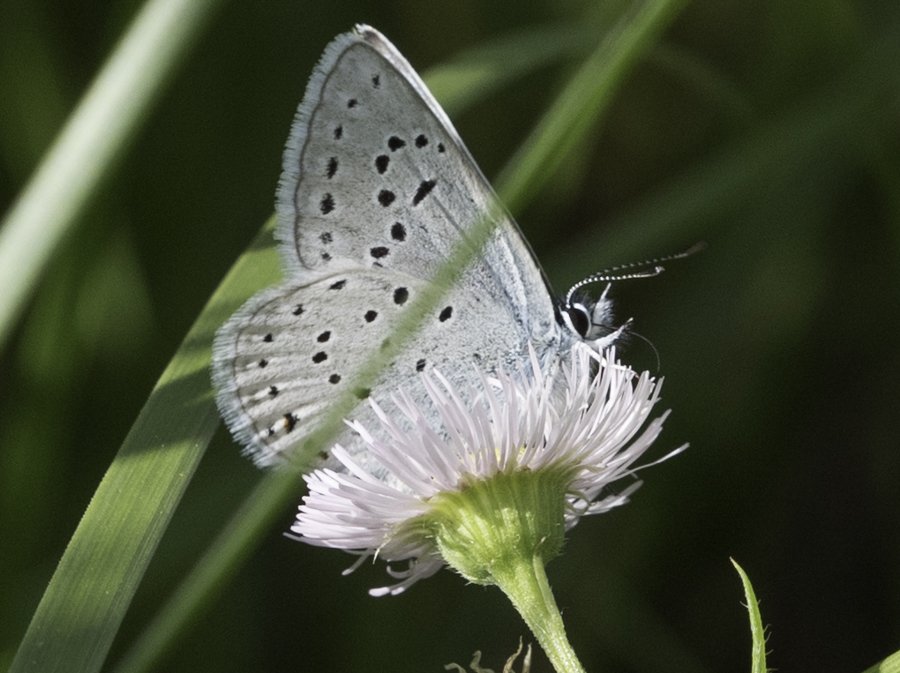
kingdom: Animalia
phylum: Arthropoda
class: Insecta
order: Lepidoptera
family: Lycaenidae
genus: Plebejus
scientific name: Plebejus saepiolus
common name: Greenish Blue
